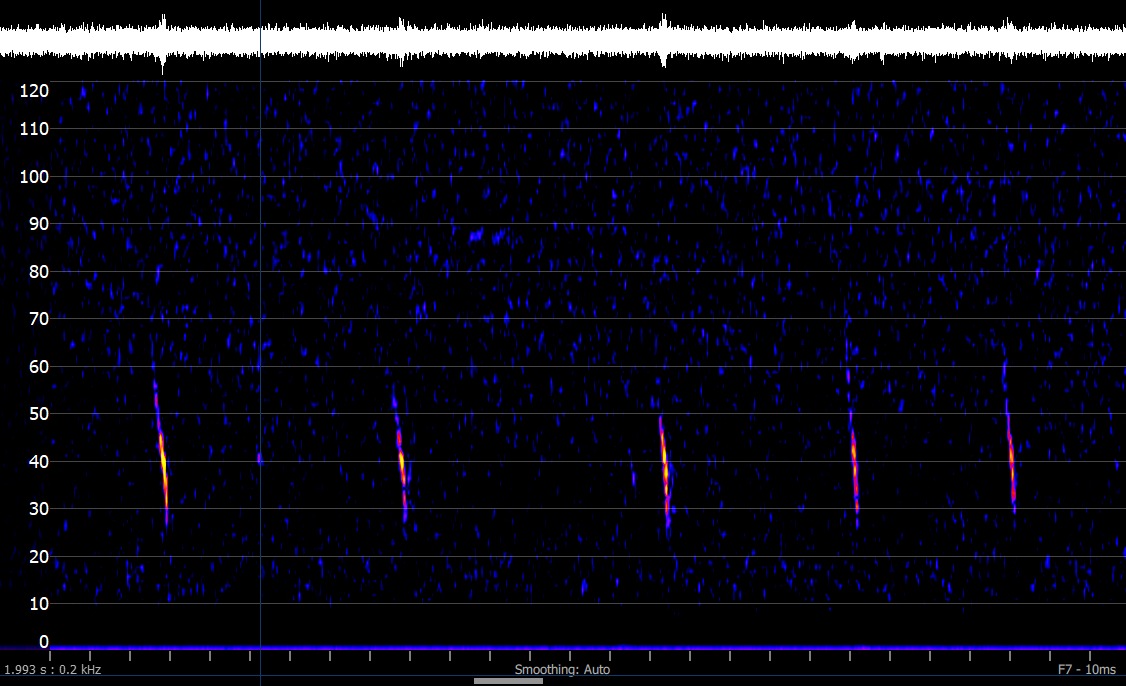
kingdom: Animalia
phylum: Chordata
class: Mammalia
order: Chiroptera
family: Vespertilionidae
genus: Myotis
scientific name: Myotis daubentonii
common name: Vandflagermus
